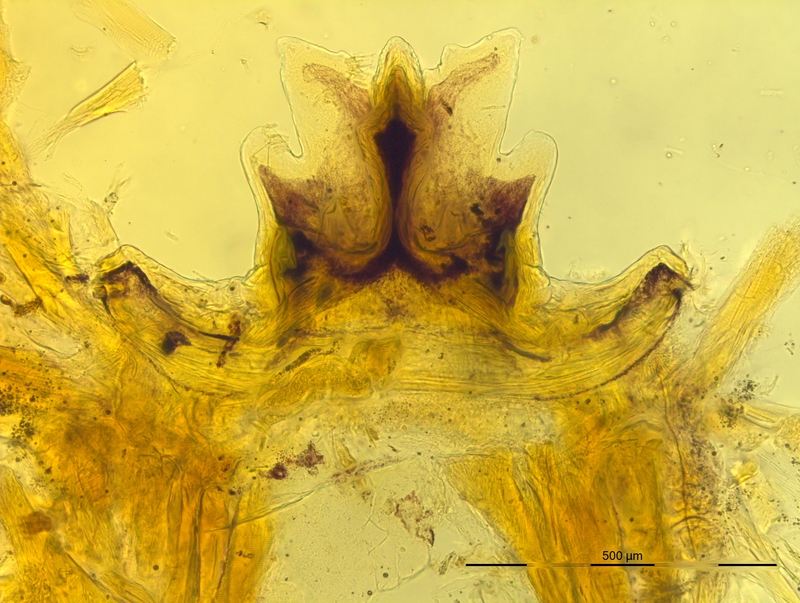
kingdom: Animalia
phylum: Arthropoda
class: Diplopoda
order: Chordeumatida
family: Craspedosomatidae
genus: Bergamosoma
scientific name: Bergamosoma sevini
